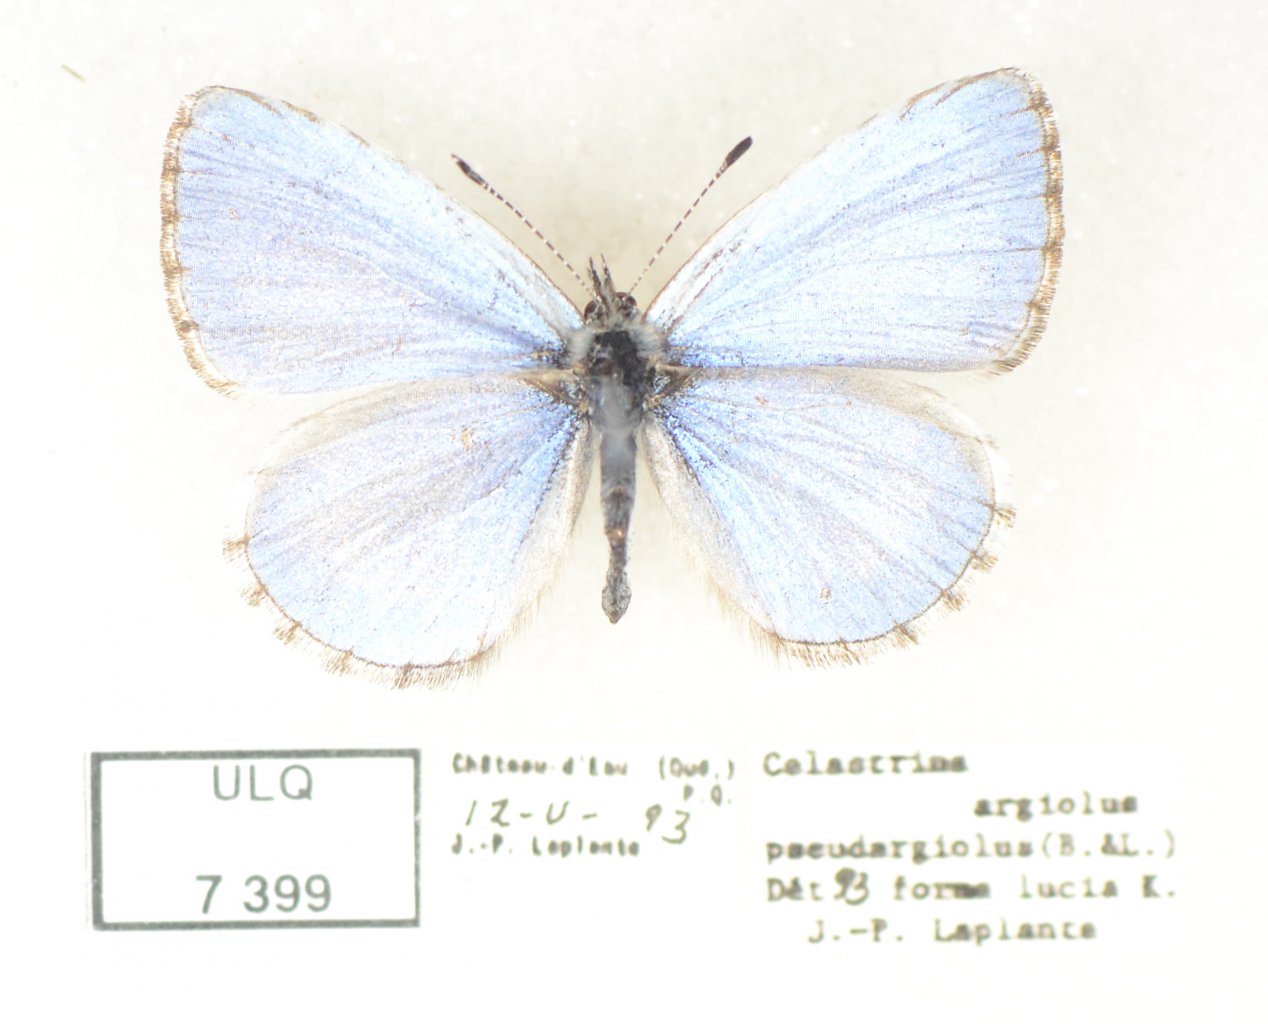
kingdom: Animalia
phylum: Arthropoda
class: Insecta
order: Lepidoptera
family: Lycaenidae
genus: Celastrina
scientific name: Celastrina lucia
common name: Northern Spring Azure
